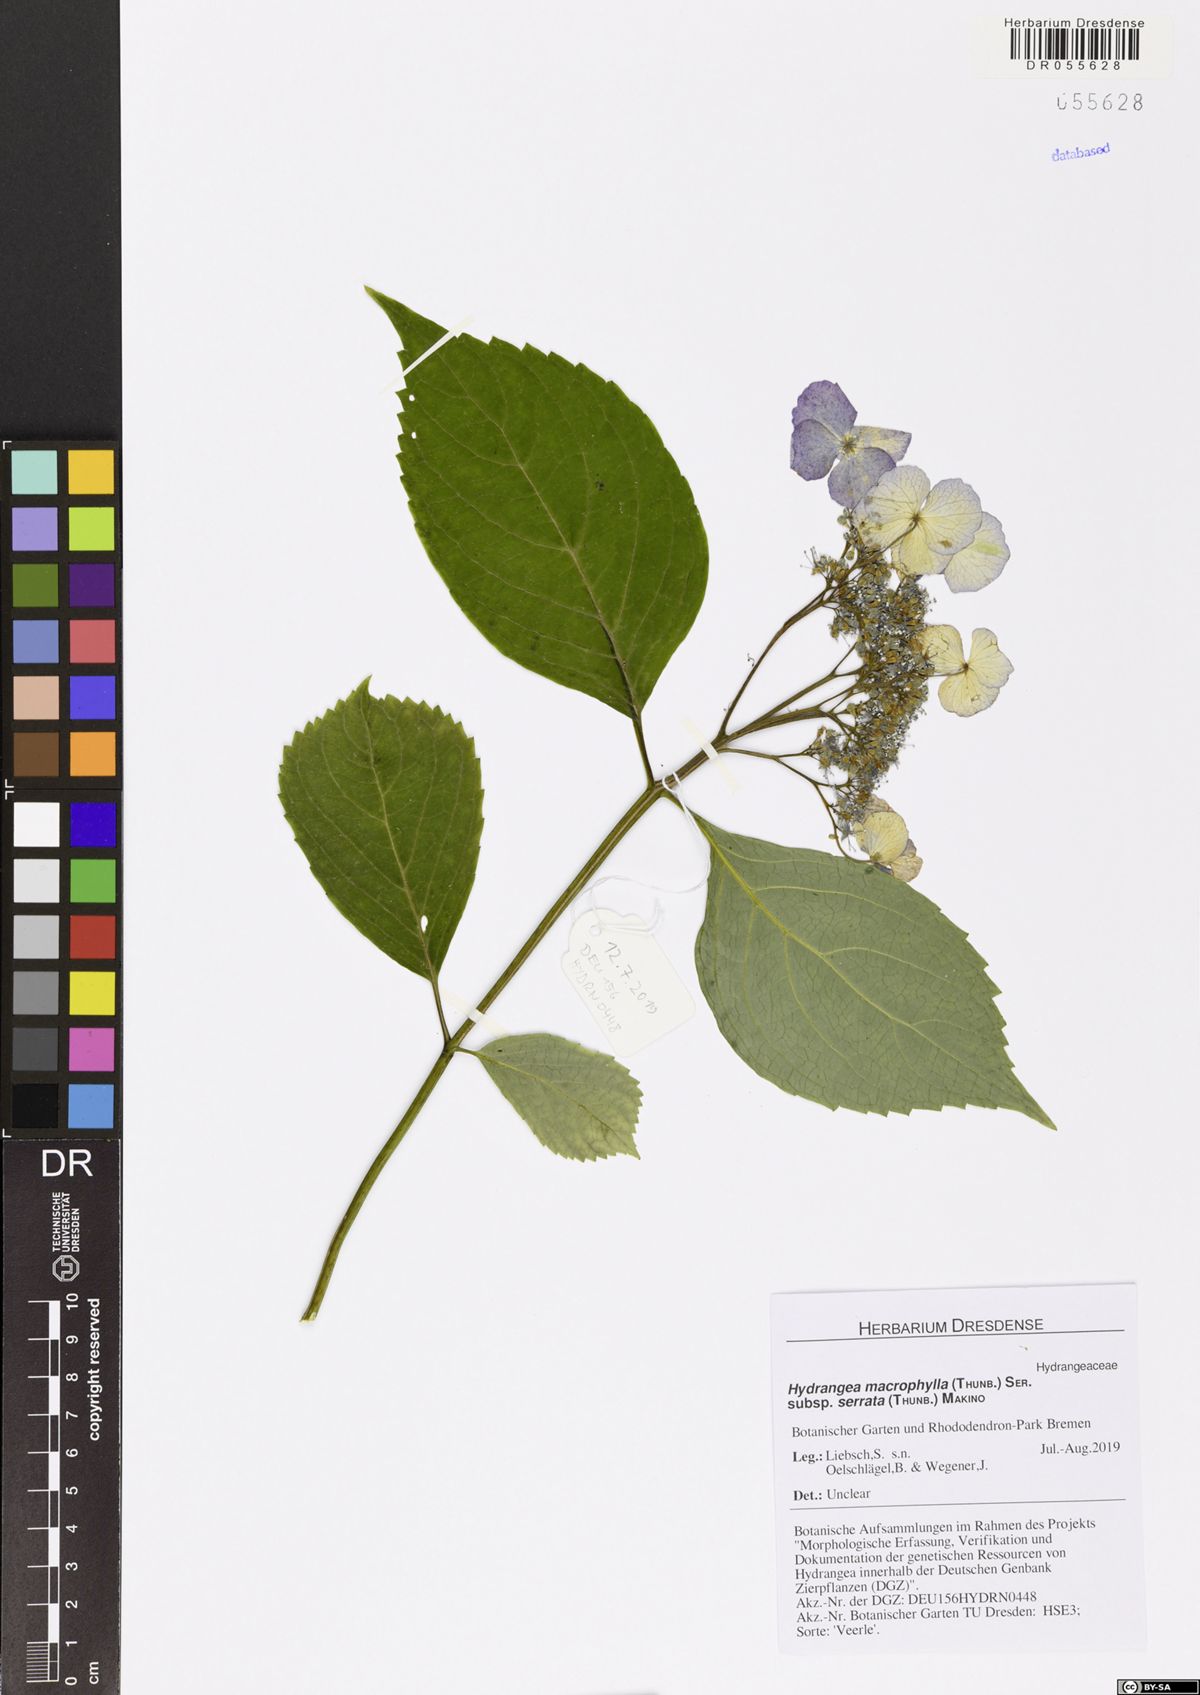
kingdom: Plantae
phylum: Tracheophyta
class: Magnoliopsida
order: Cornales
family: Hydrangeaceae
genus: Hydrangea
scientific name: Hydrangea serrata
